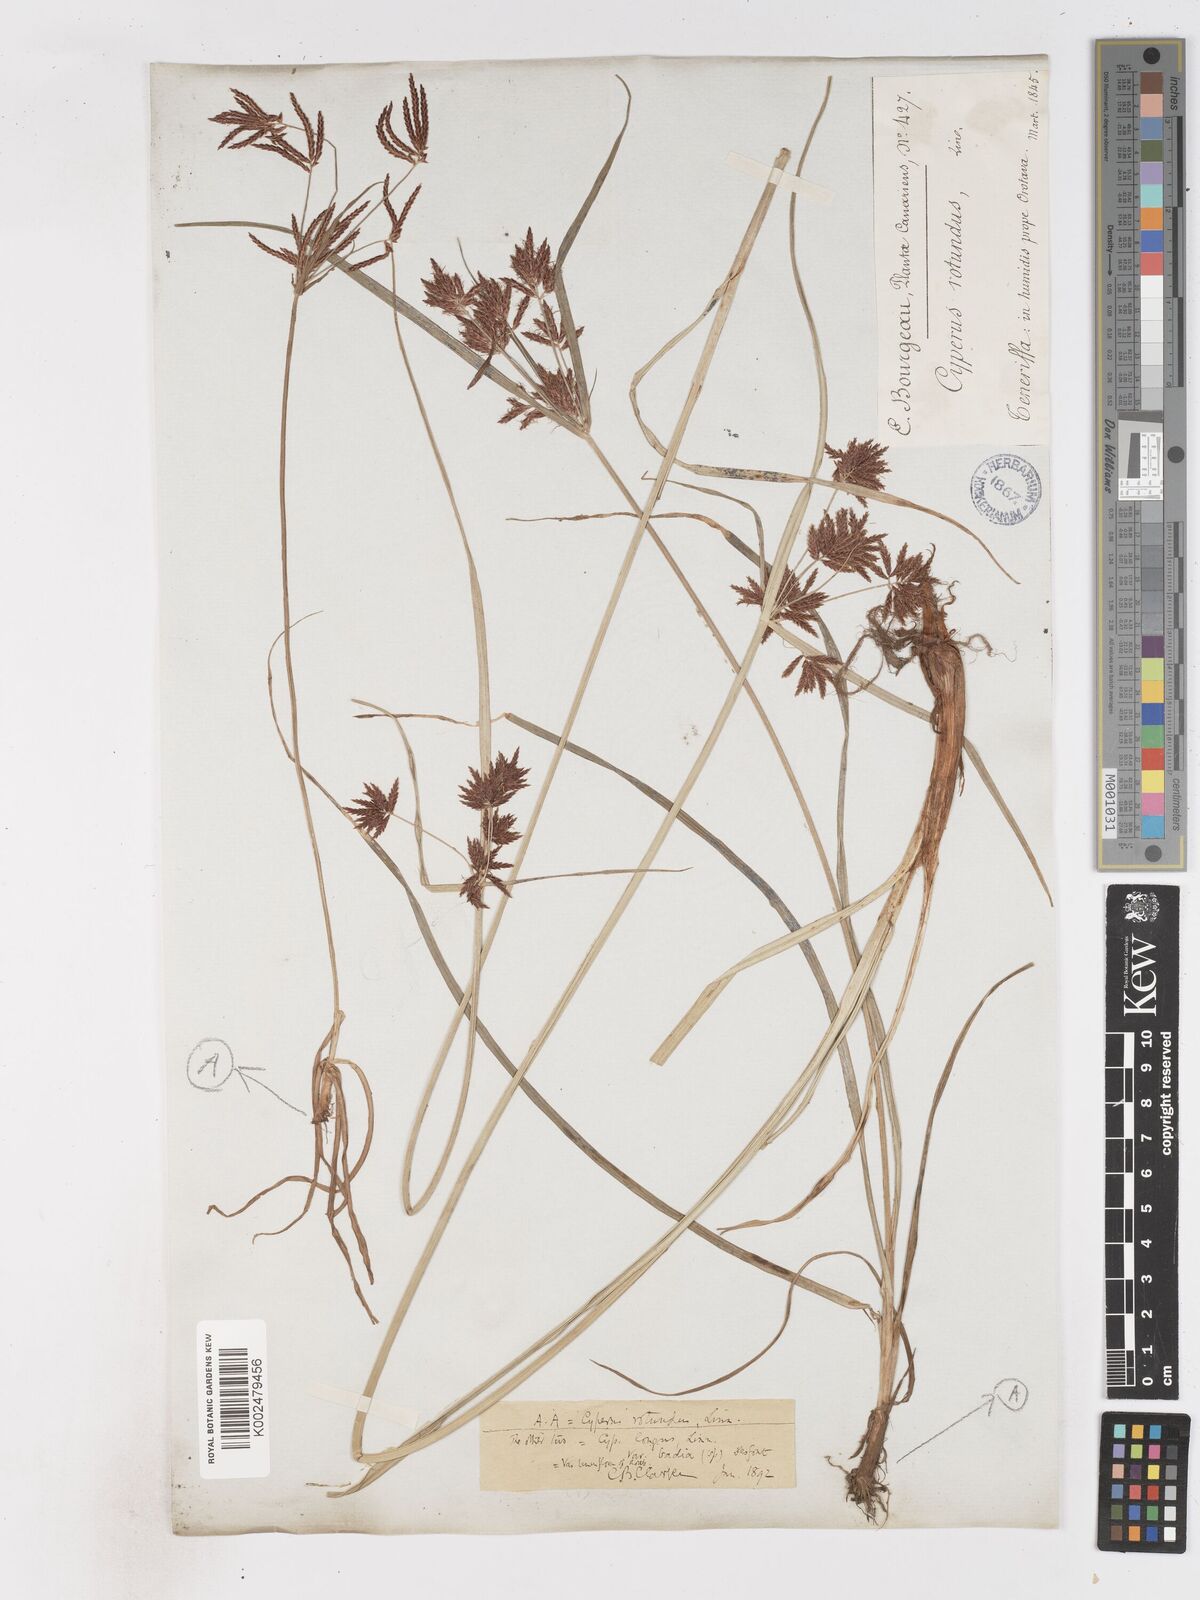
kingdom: Plantae
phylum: Tracheophyta
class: Liliopsida
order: Poales
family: Cyperaceae
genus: Cyperus
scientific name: Cyperus longus
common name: Galingale
